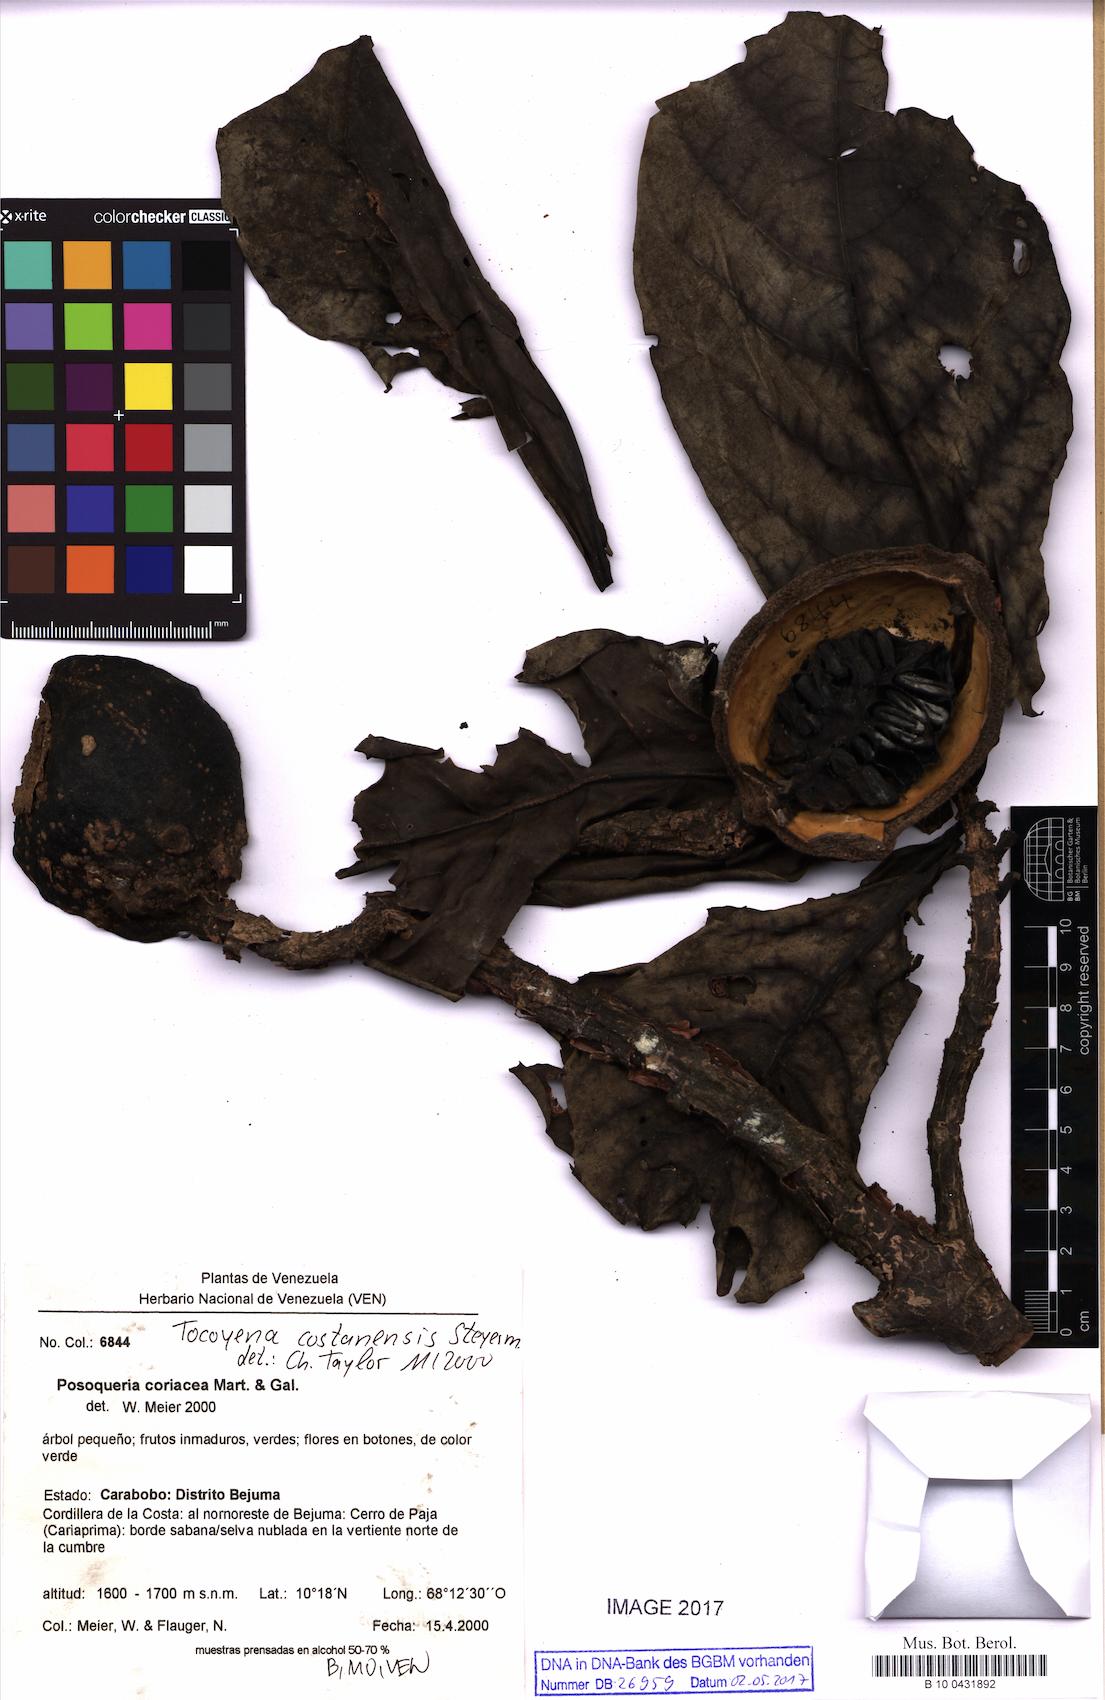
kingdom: Plantae
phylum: Tracheophyta
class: Magnoliopsida
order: Gentianales
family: Rubiaceae
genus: Tocoyena
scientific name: Tocoyena pittieri
